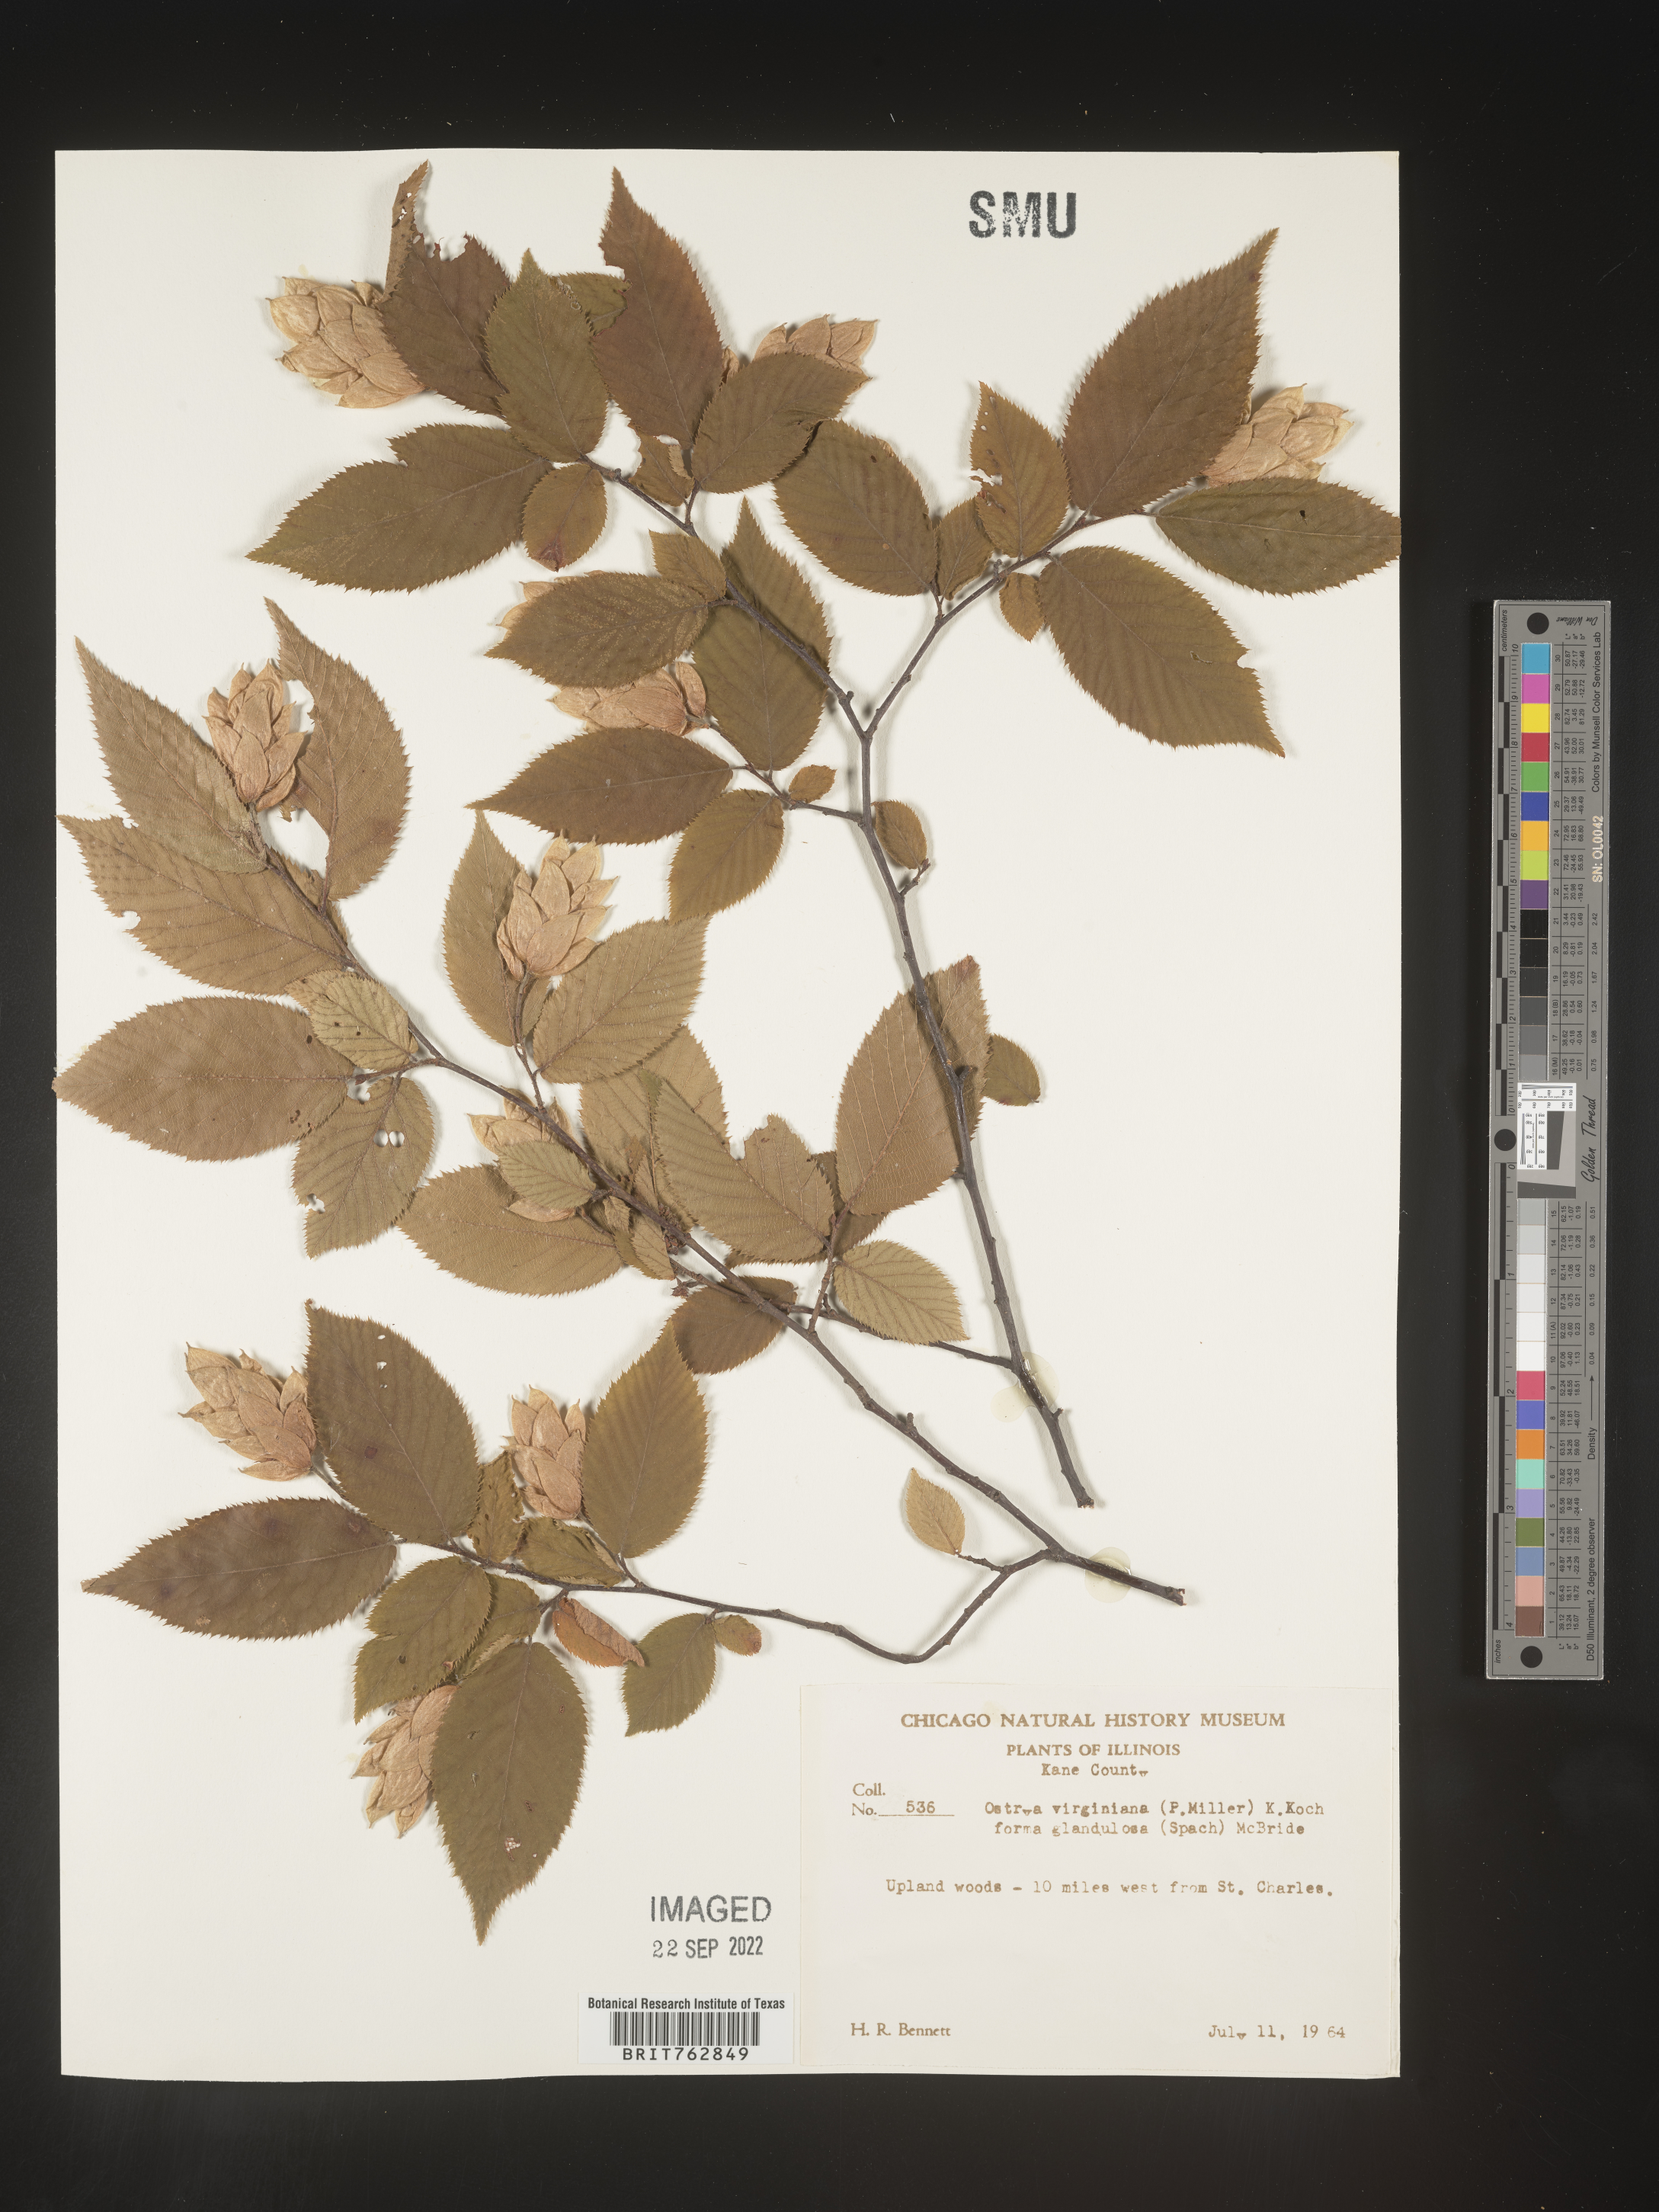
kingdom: Plantae
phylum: Tracheophyta
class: Magnoliopsida
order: Fagales
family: Betulaceae
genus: Ostrya
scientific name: Ostrya virginiana
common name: Ironwood
